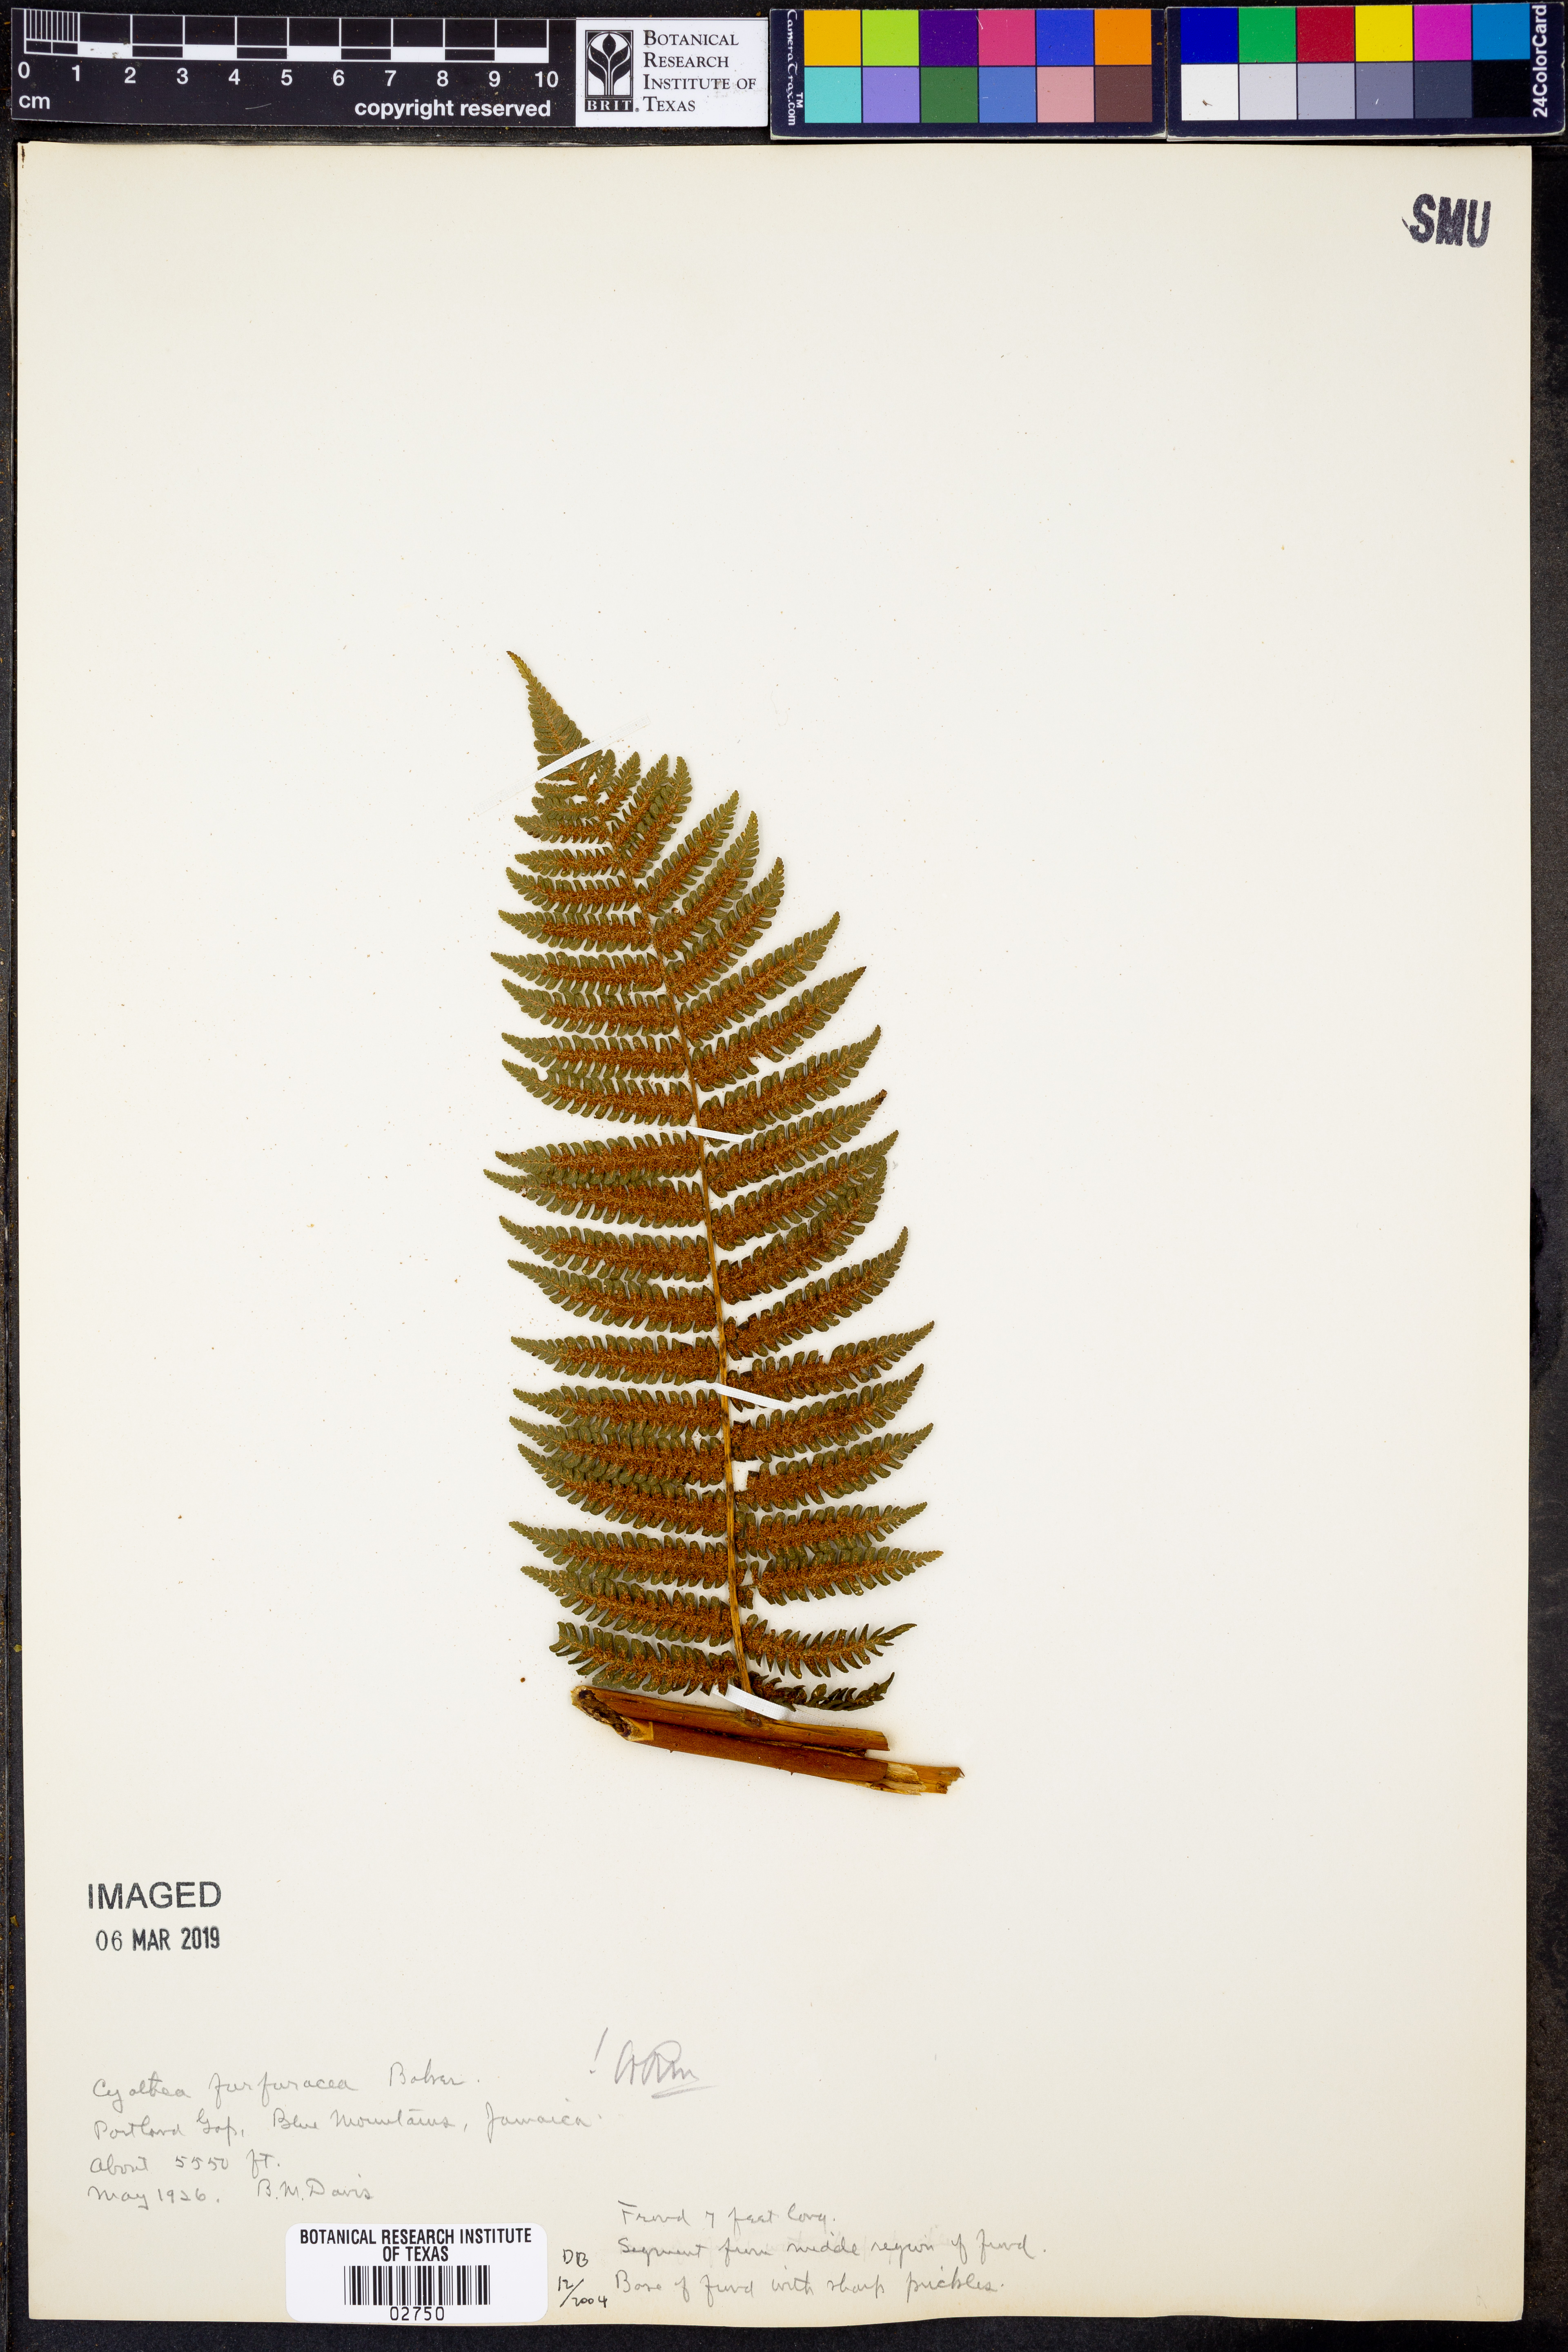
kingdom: Plantae
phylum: Tracheophyta
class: Polypodiopsida
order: Cyatheales
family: Cyatheaceae
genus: Cyathea
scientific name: Cyathea tenera
